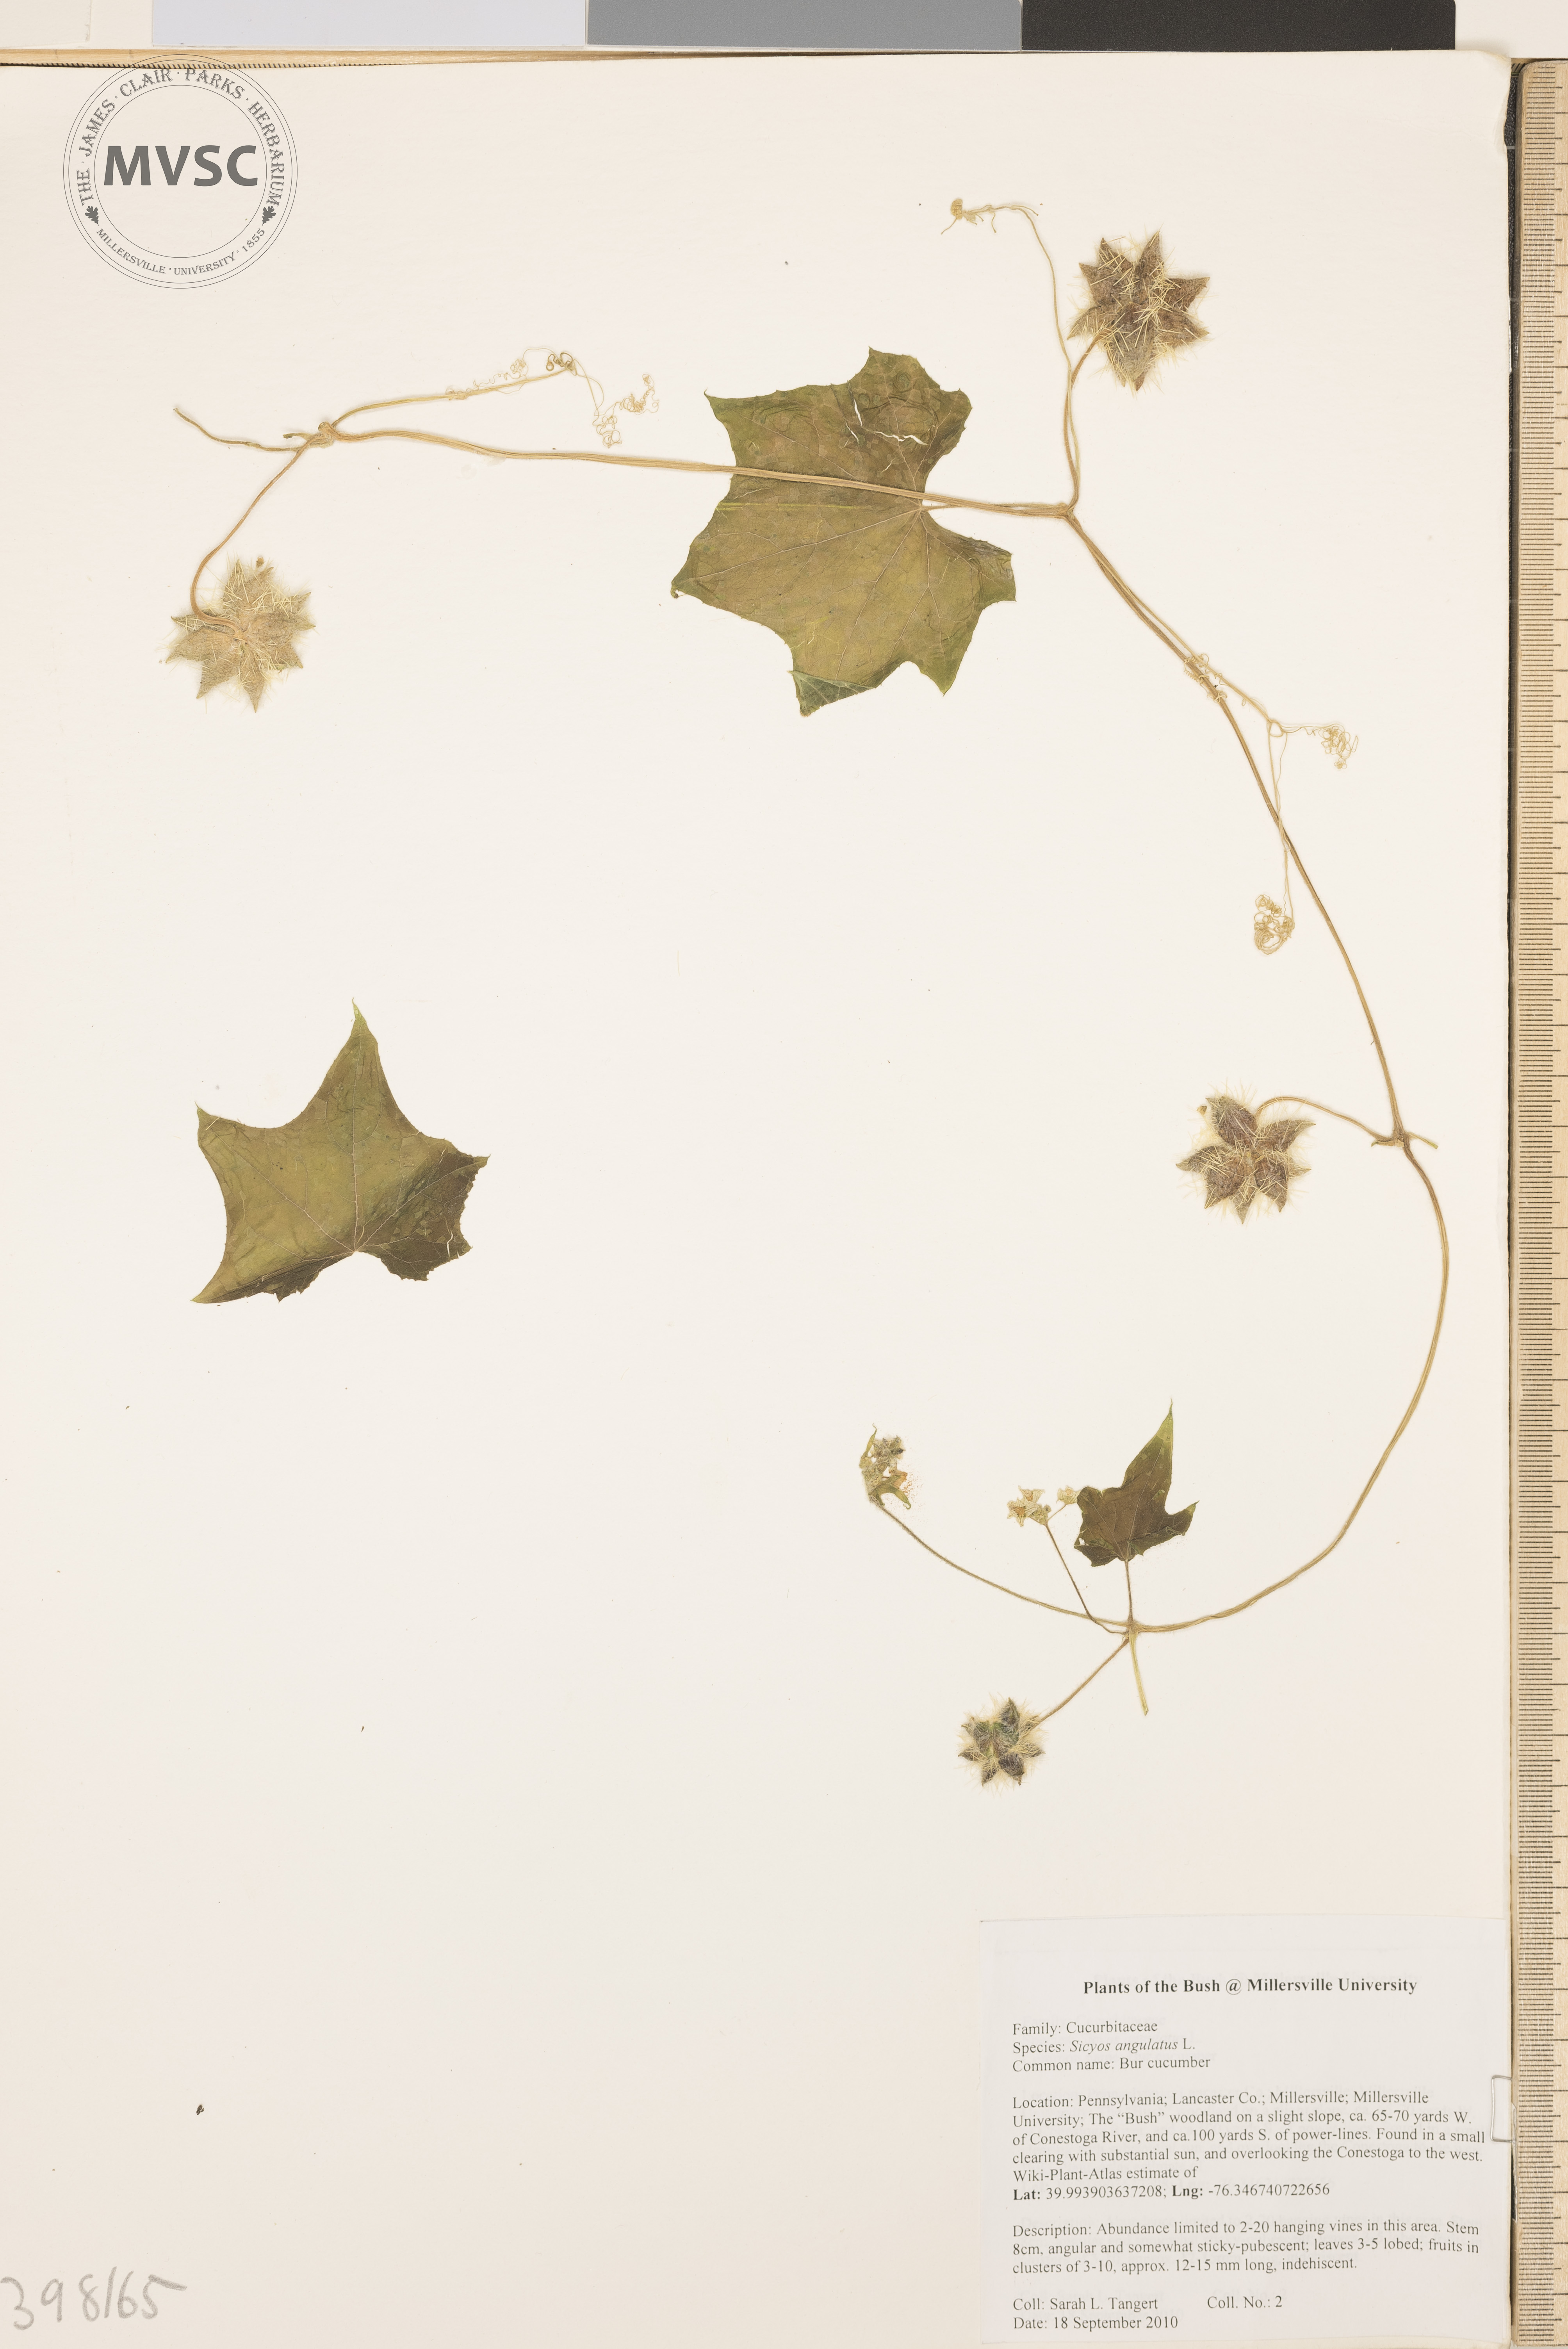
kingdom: Plantae
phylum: Tracheophyta
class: Magnoliopsida
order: Cucurbitales
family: Cucurbitaceae
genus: Sicyos
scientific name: Sicyos angulatus
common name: Bur cucumber
